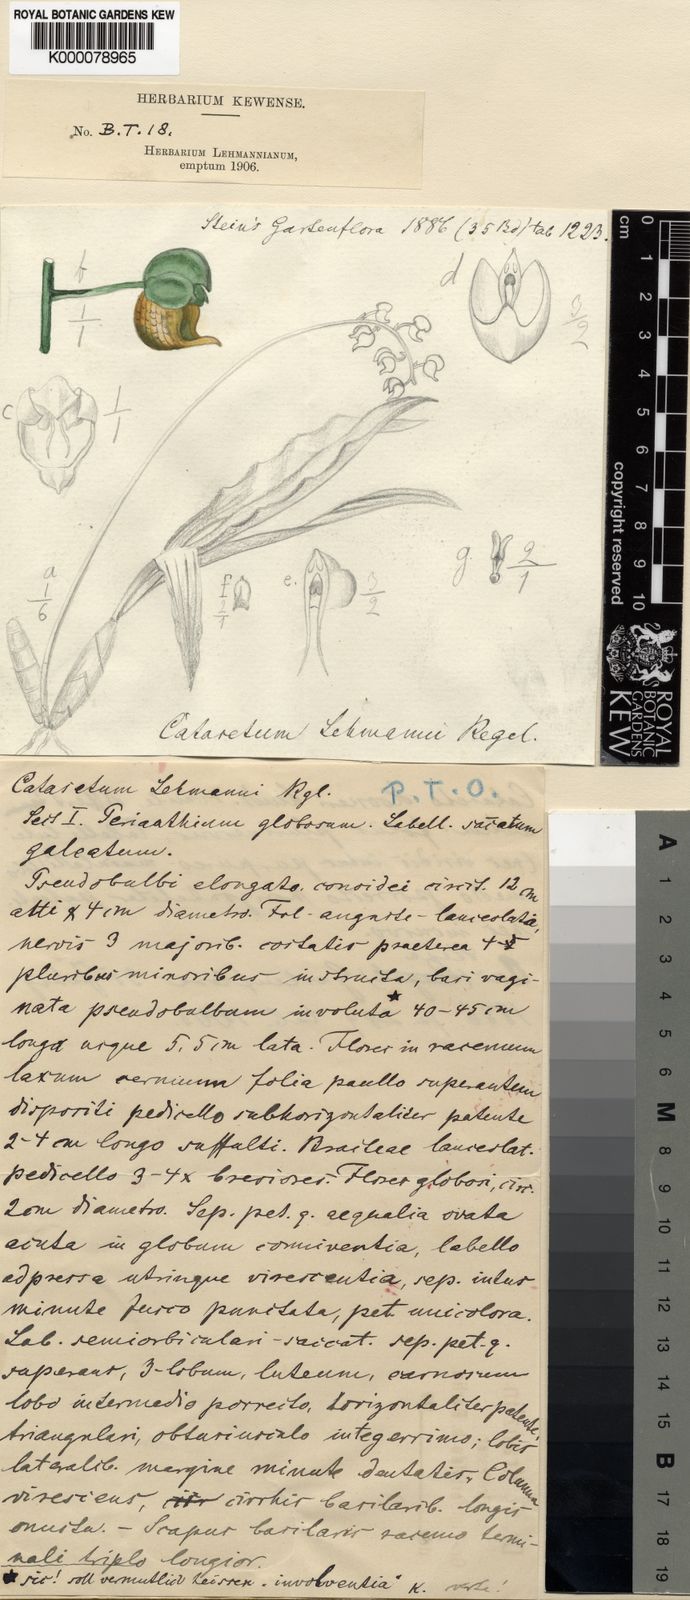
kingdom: Plantae
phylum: Tracheophyta
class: Liliopsida
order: Asparagales
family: Orchidaceae
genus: Catasetum
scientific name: Catasetum lehmannii
